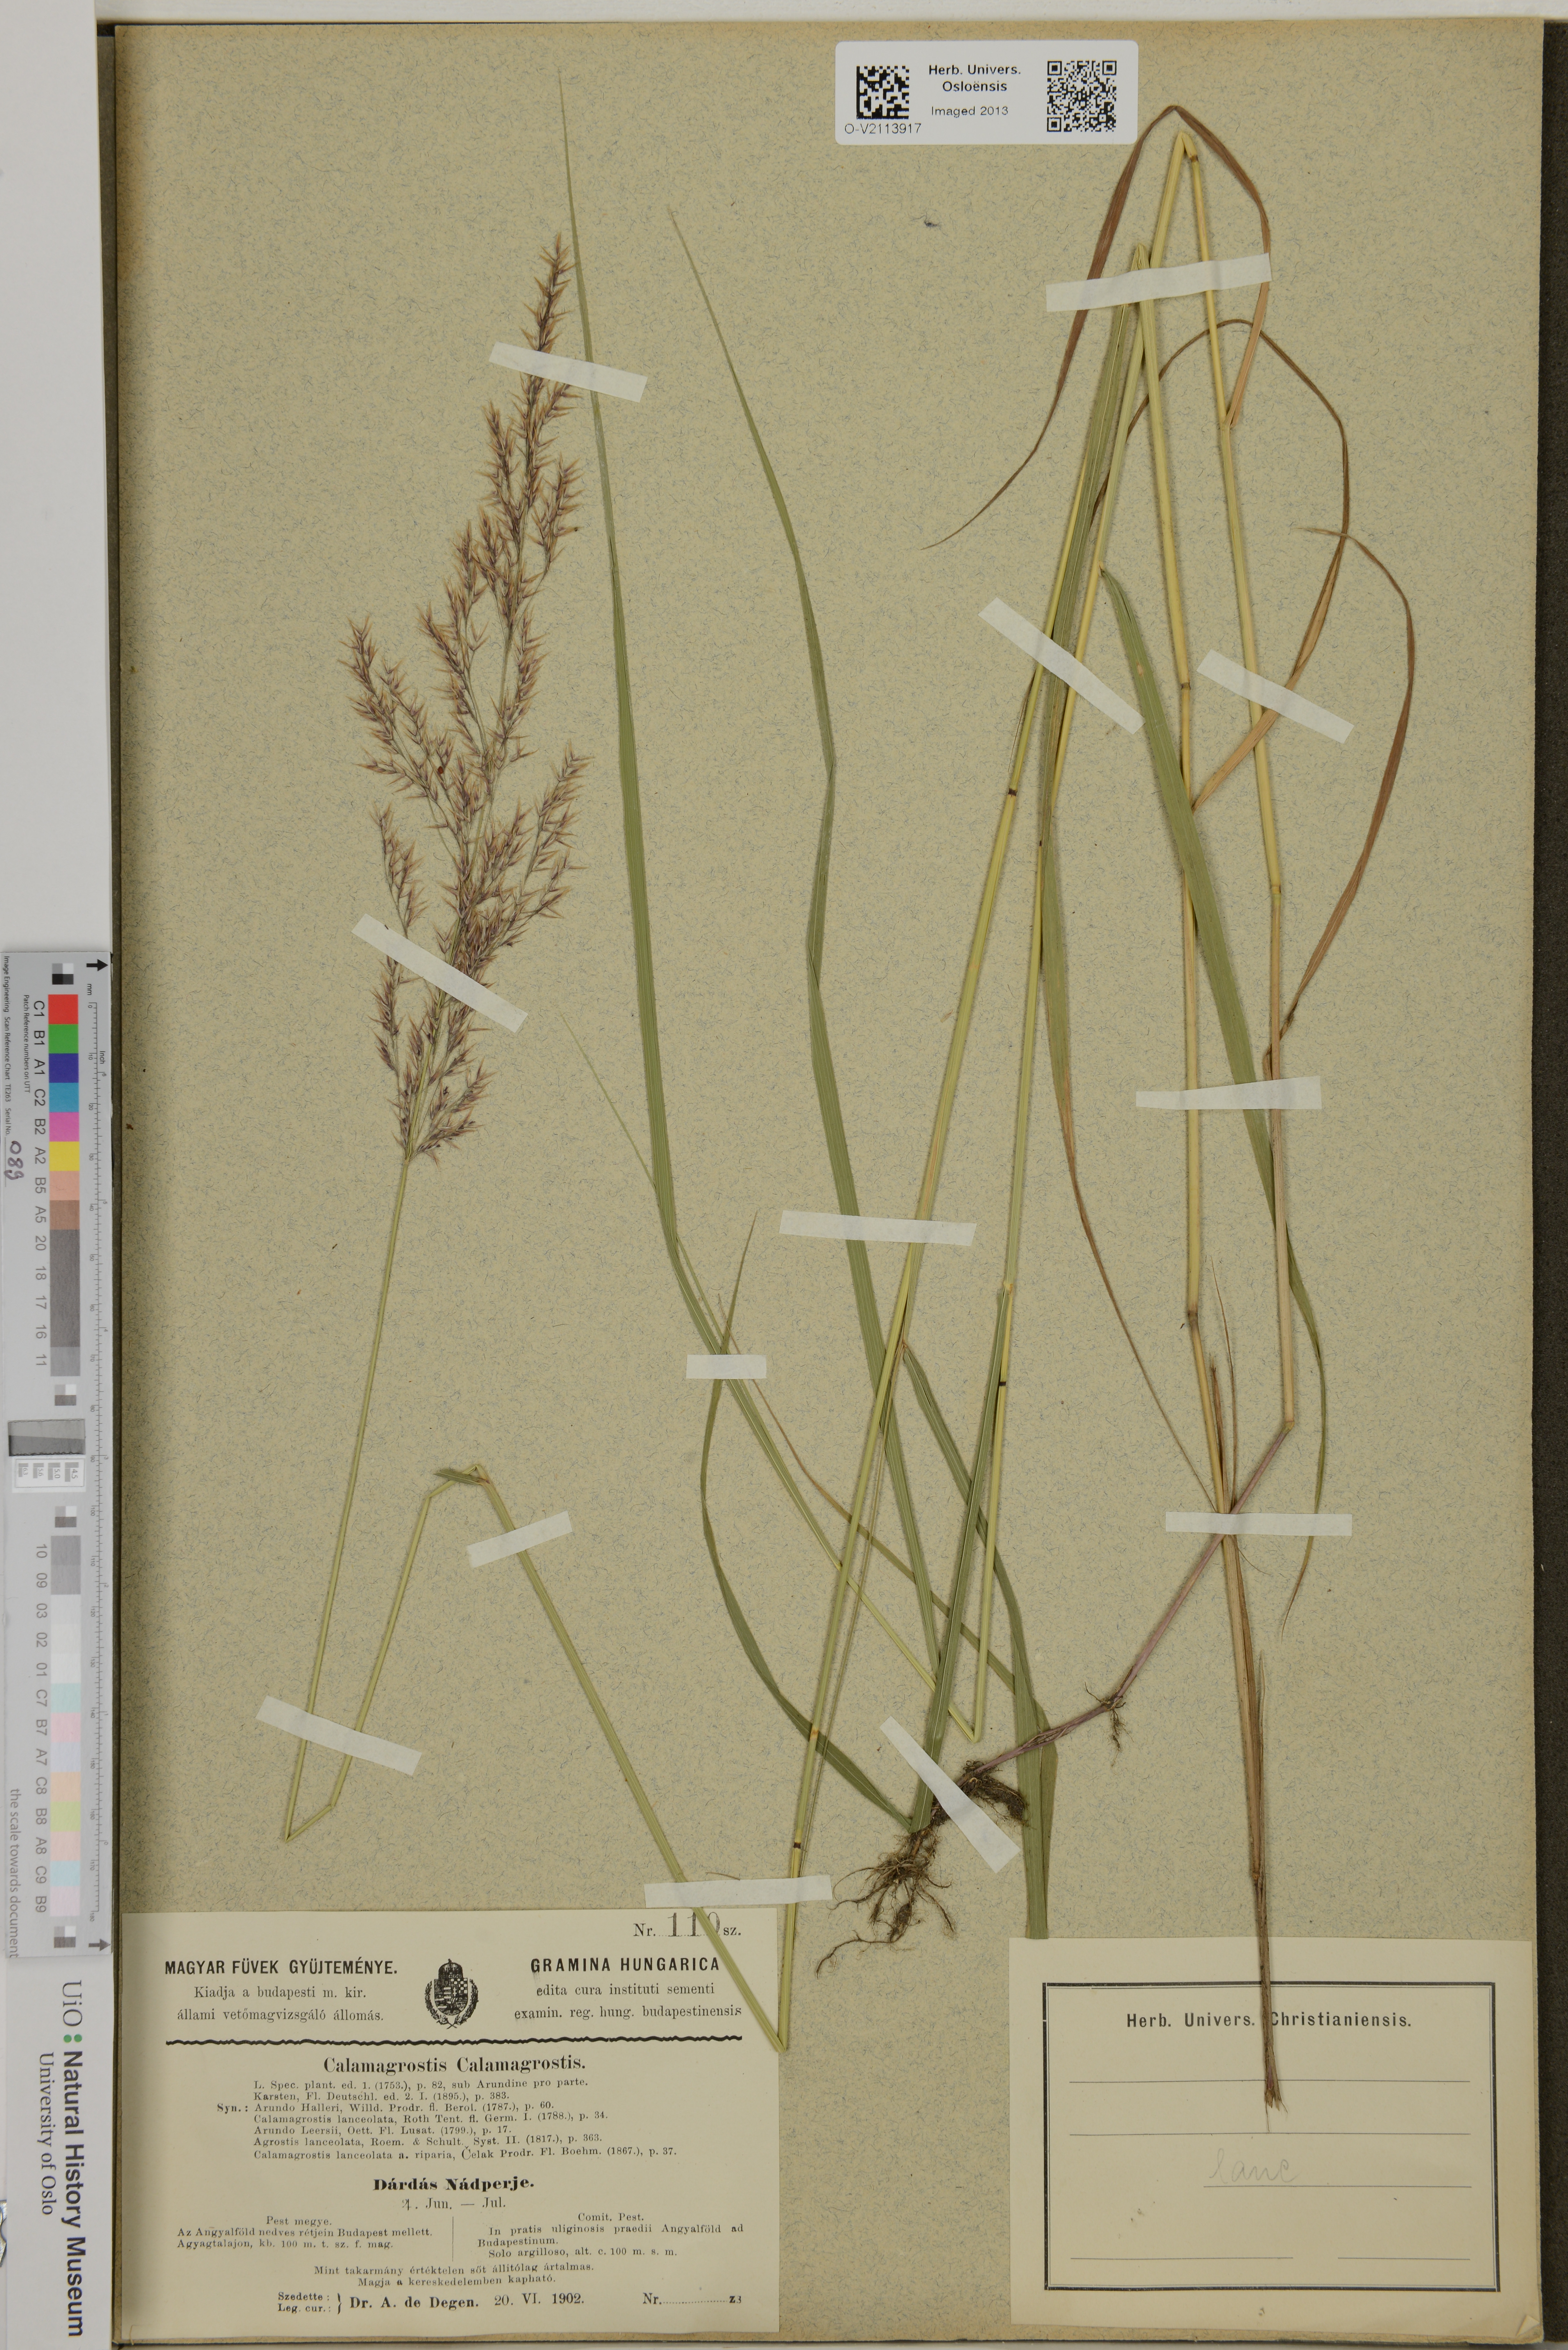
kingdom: Plantae
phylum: Tracheophyta
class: Liliopsida
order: Poales
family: Poaceae
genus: Calamagrostis
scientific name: Calamagrostis canescens
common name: Purple small-reed
